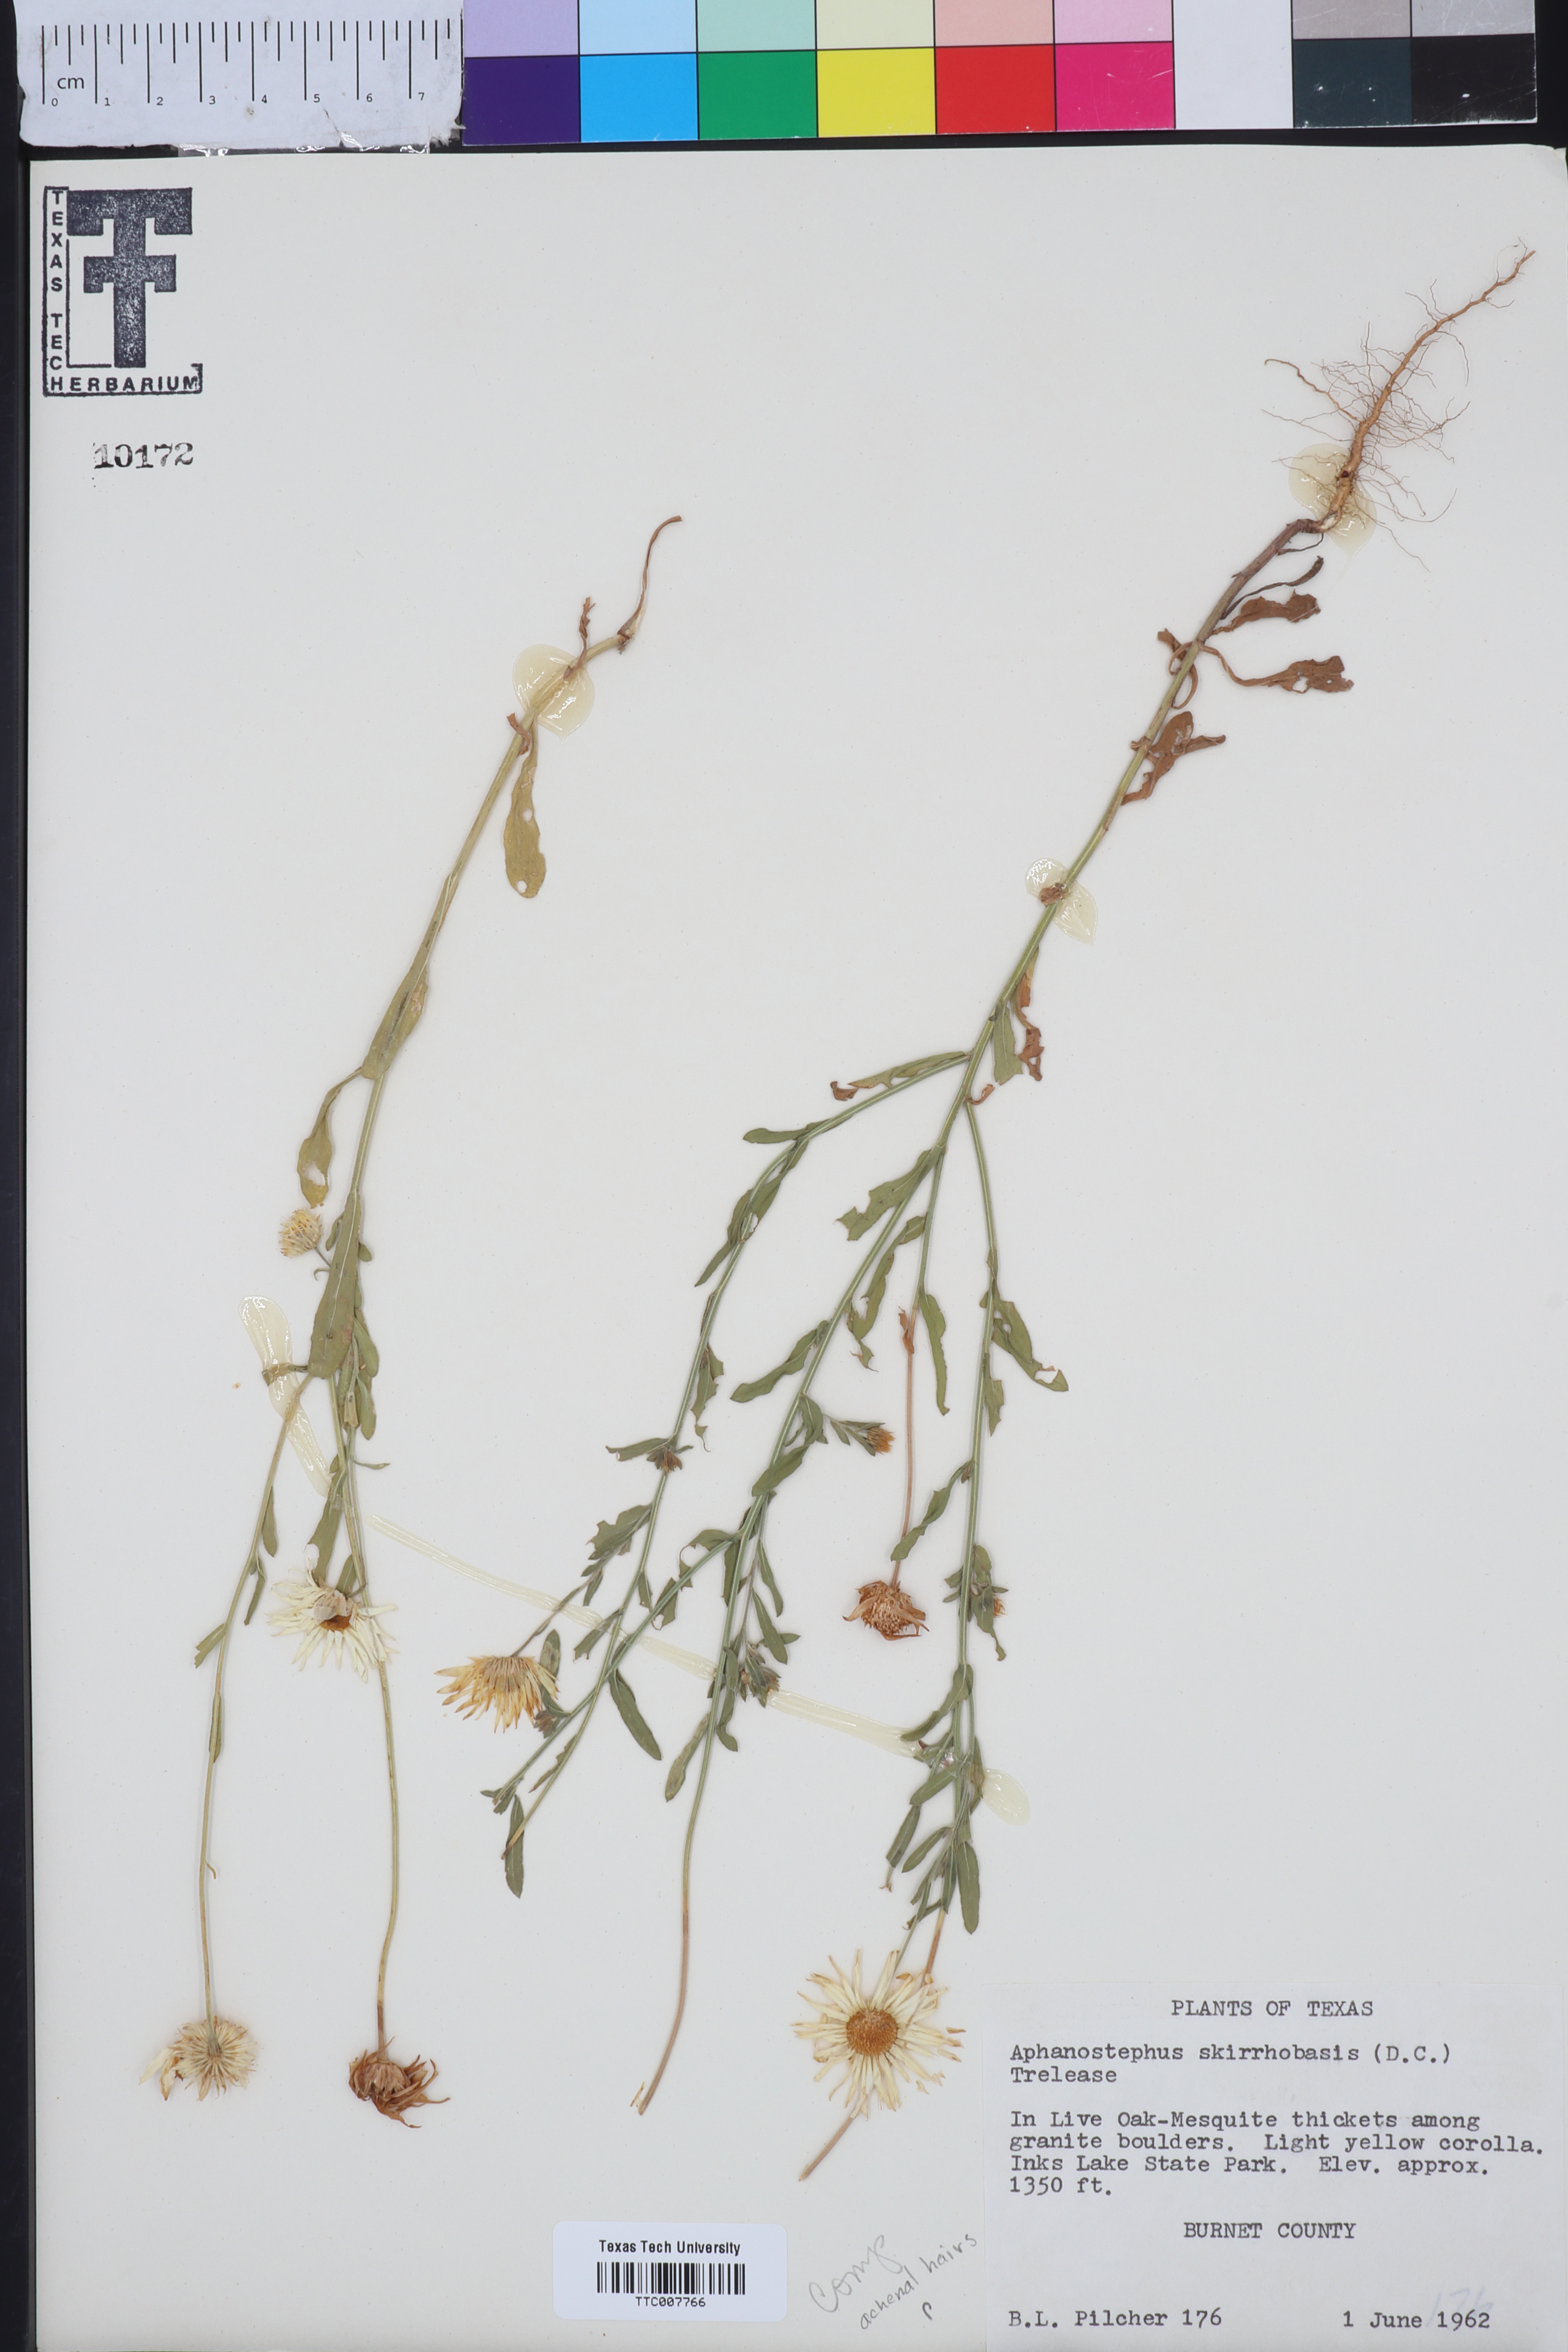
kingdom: Plantae
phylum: Tracheophyta
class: Magnoliopsida
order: Asterales
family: Asteraceae
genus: Aphanostephus
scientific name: Aphanostephus skirrhobasis
